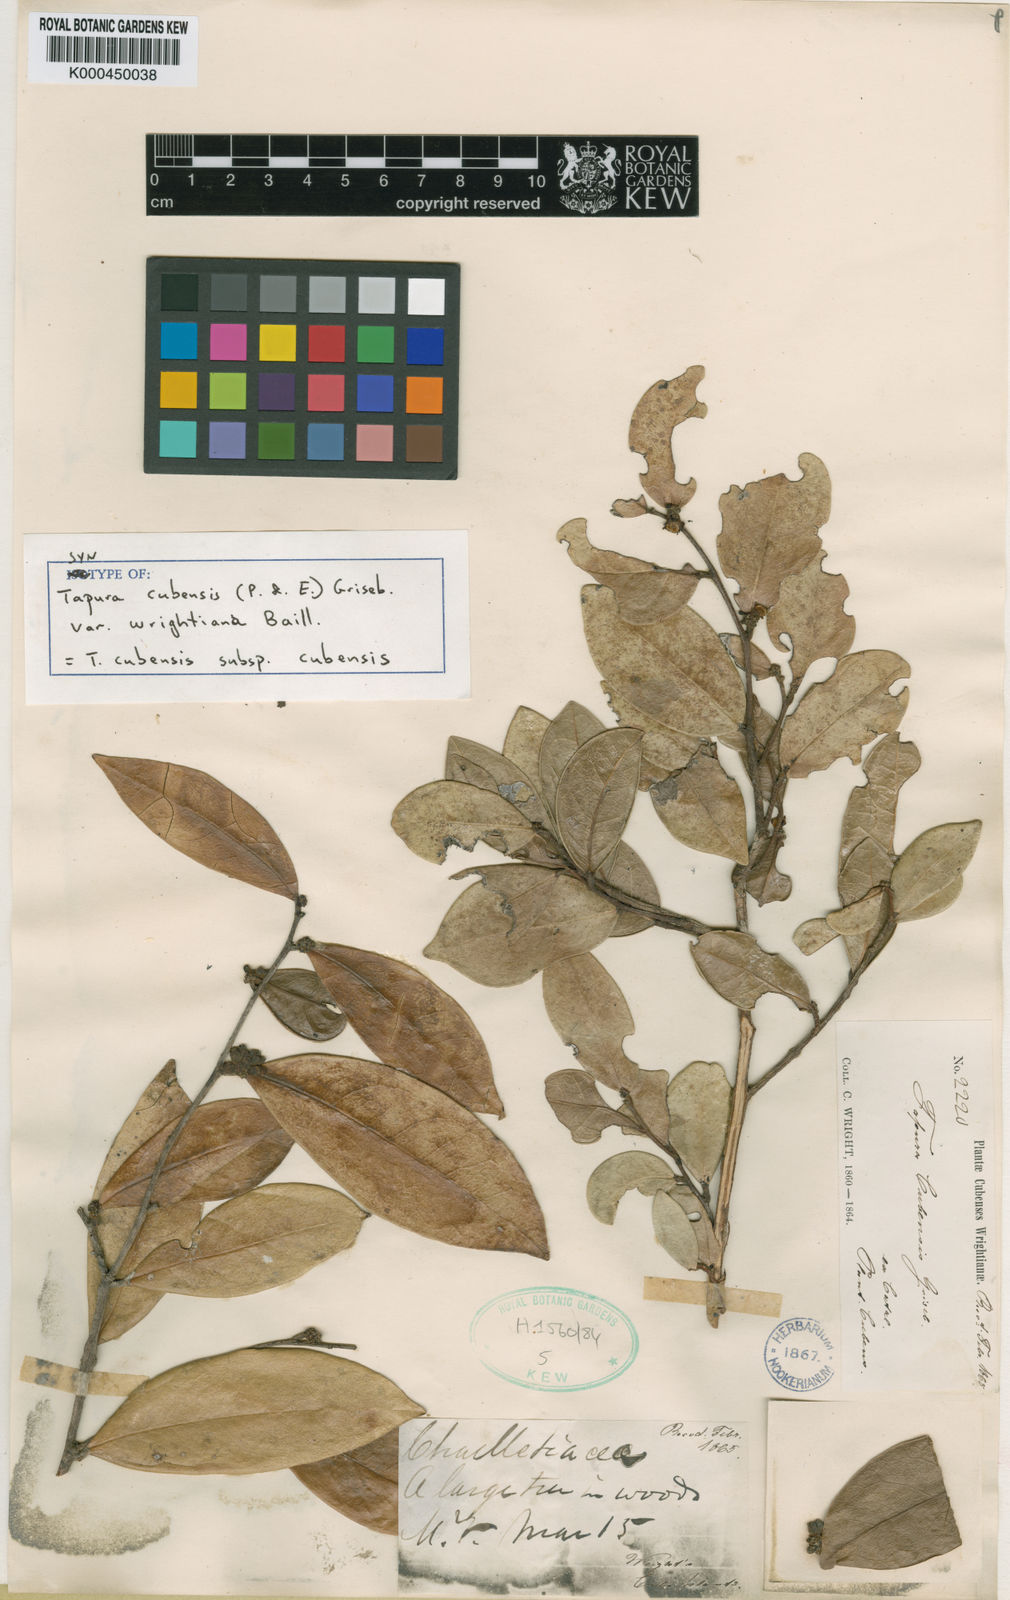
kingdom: Plantae
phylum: Tracheophyta
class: Magnoliopsida
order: Malpighiales
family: Dichapetalaceae
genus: Tapura
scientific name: Tapura cubensis
